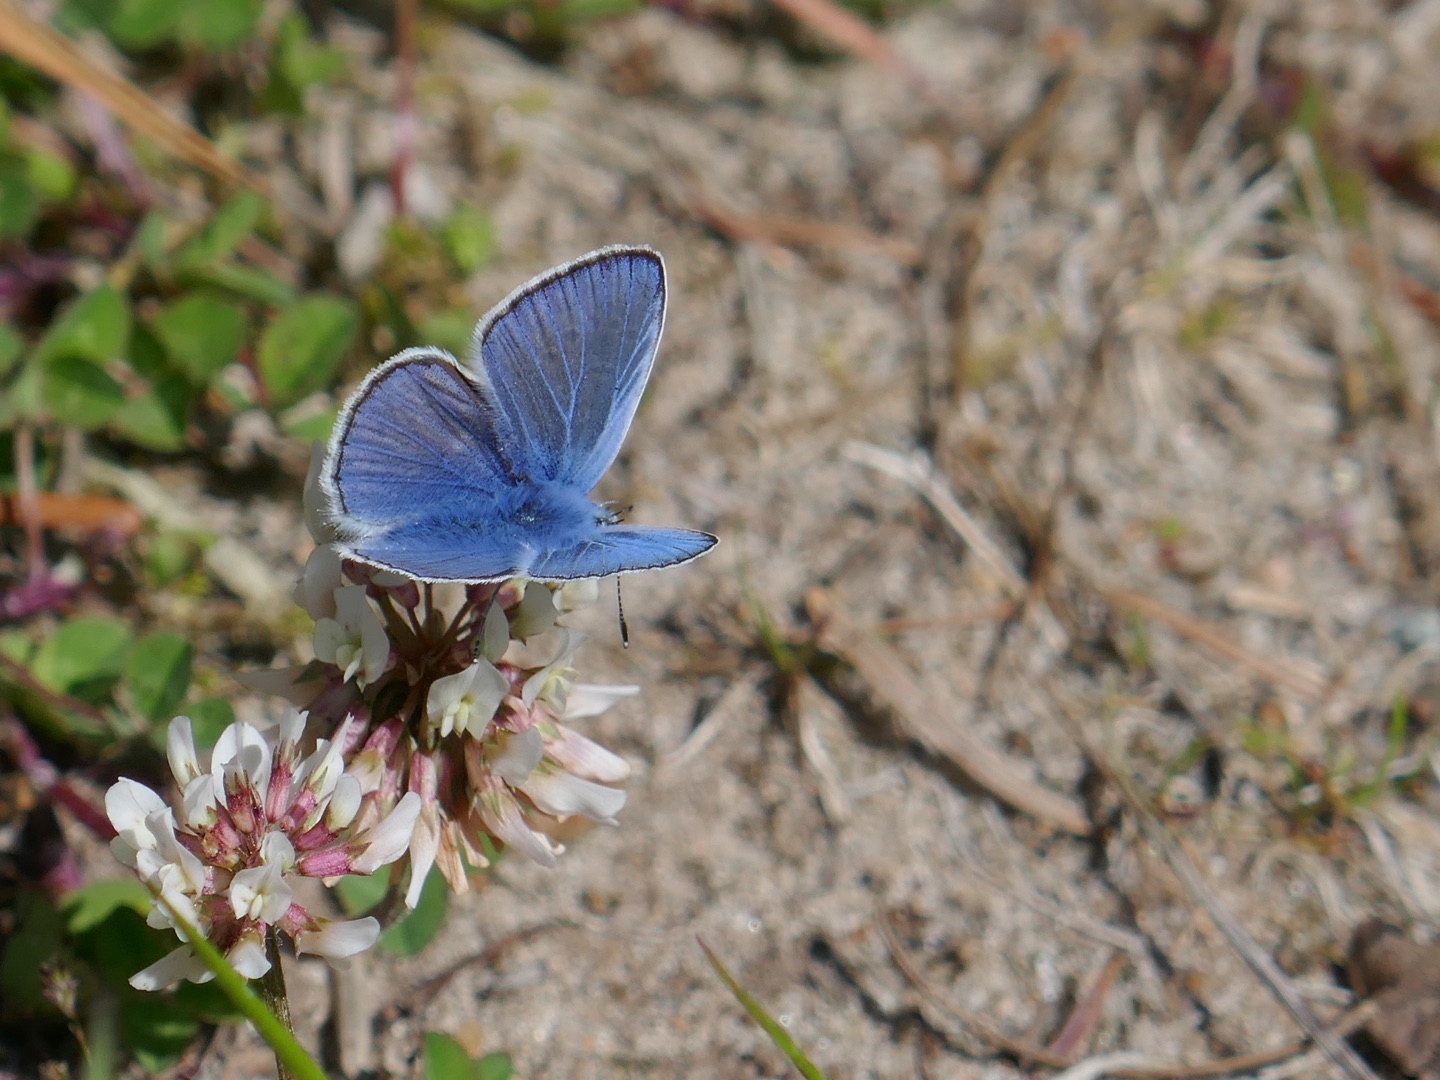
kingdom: Animalia
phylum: Arthropoda
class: Insecta
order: Lepidoptera
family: Lycaenidae
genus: Polyommatus
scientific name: Polyommatus icarus
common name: Almindelig blåfugl
